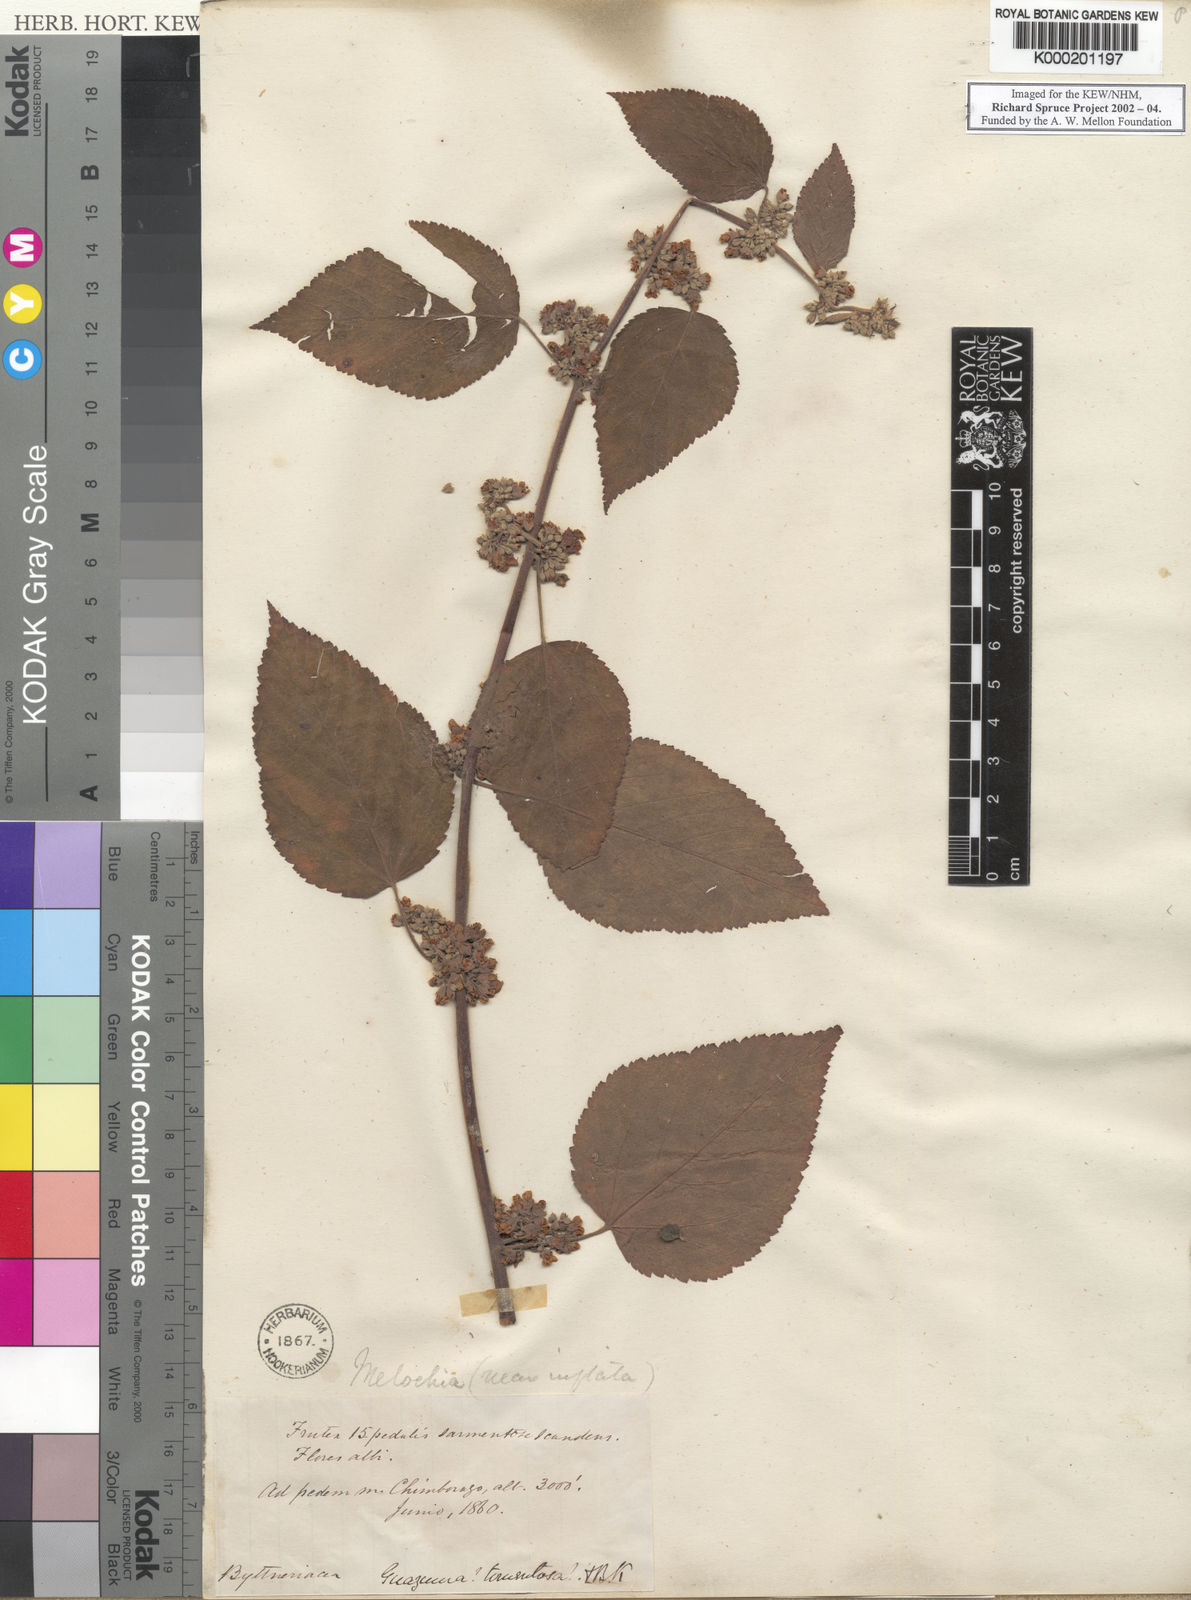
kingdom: Plantae
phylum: Tracheophyta
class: Magnoliopsida
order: Malvales
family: Malvaceae
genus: Melochia
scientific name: Melochia lupulina
